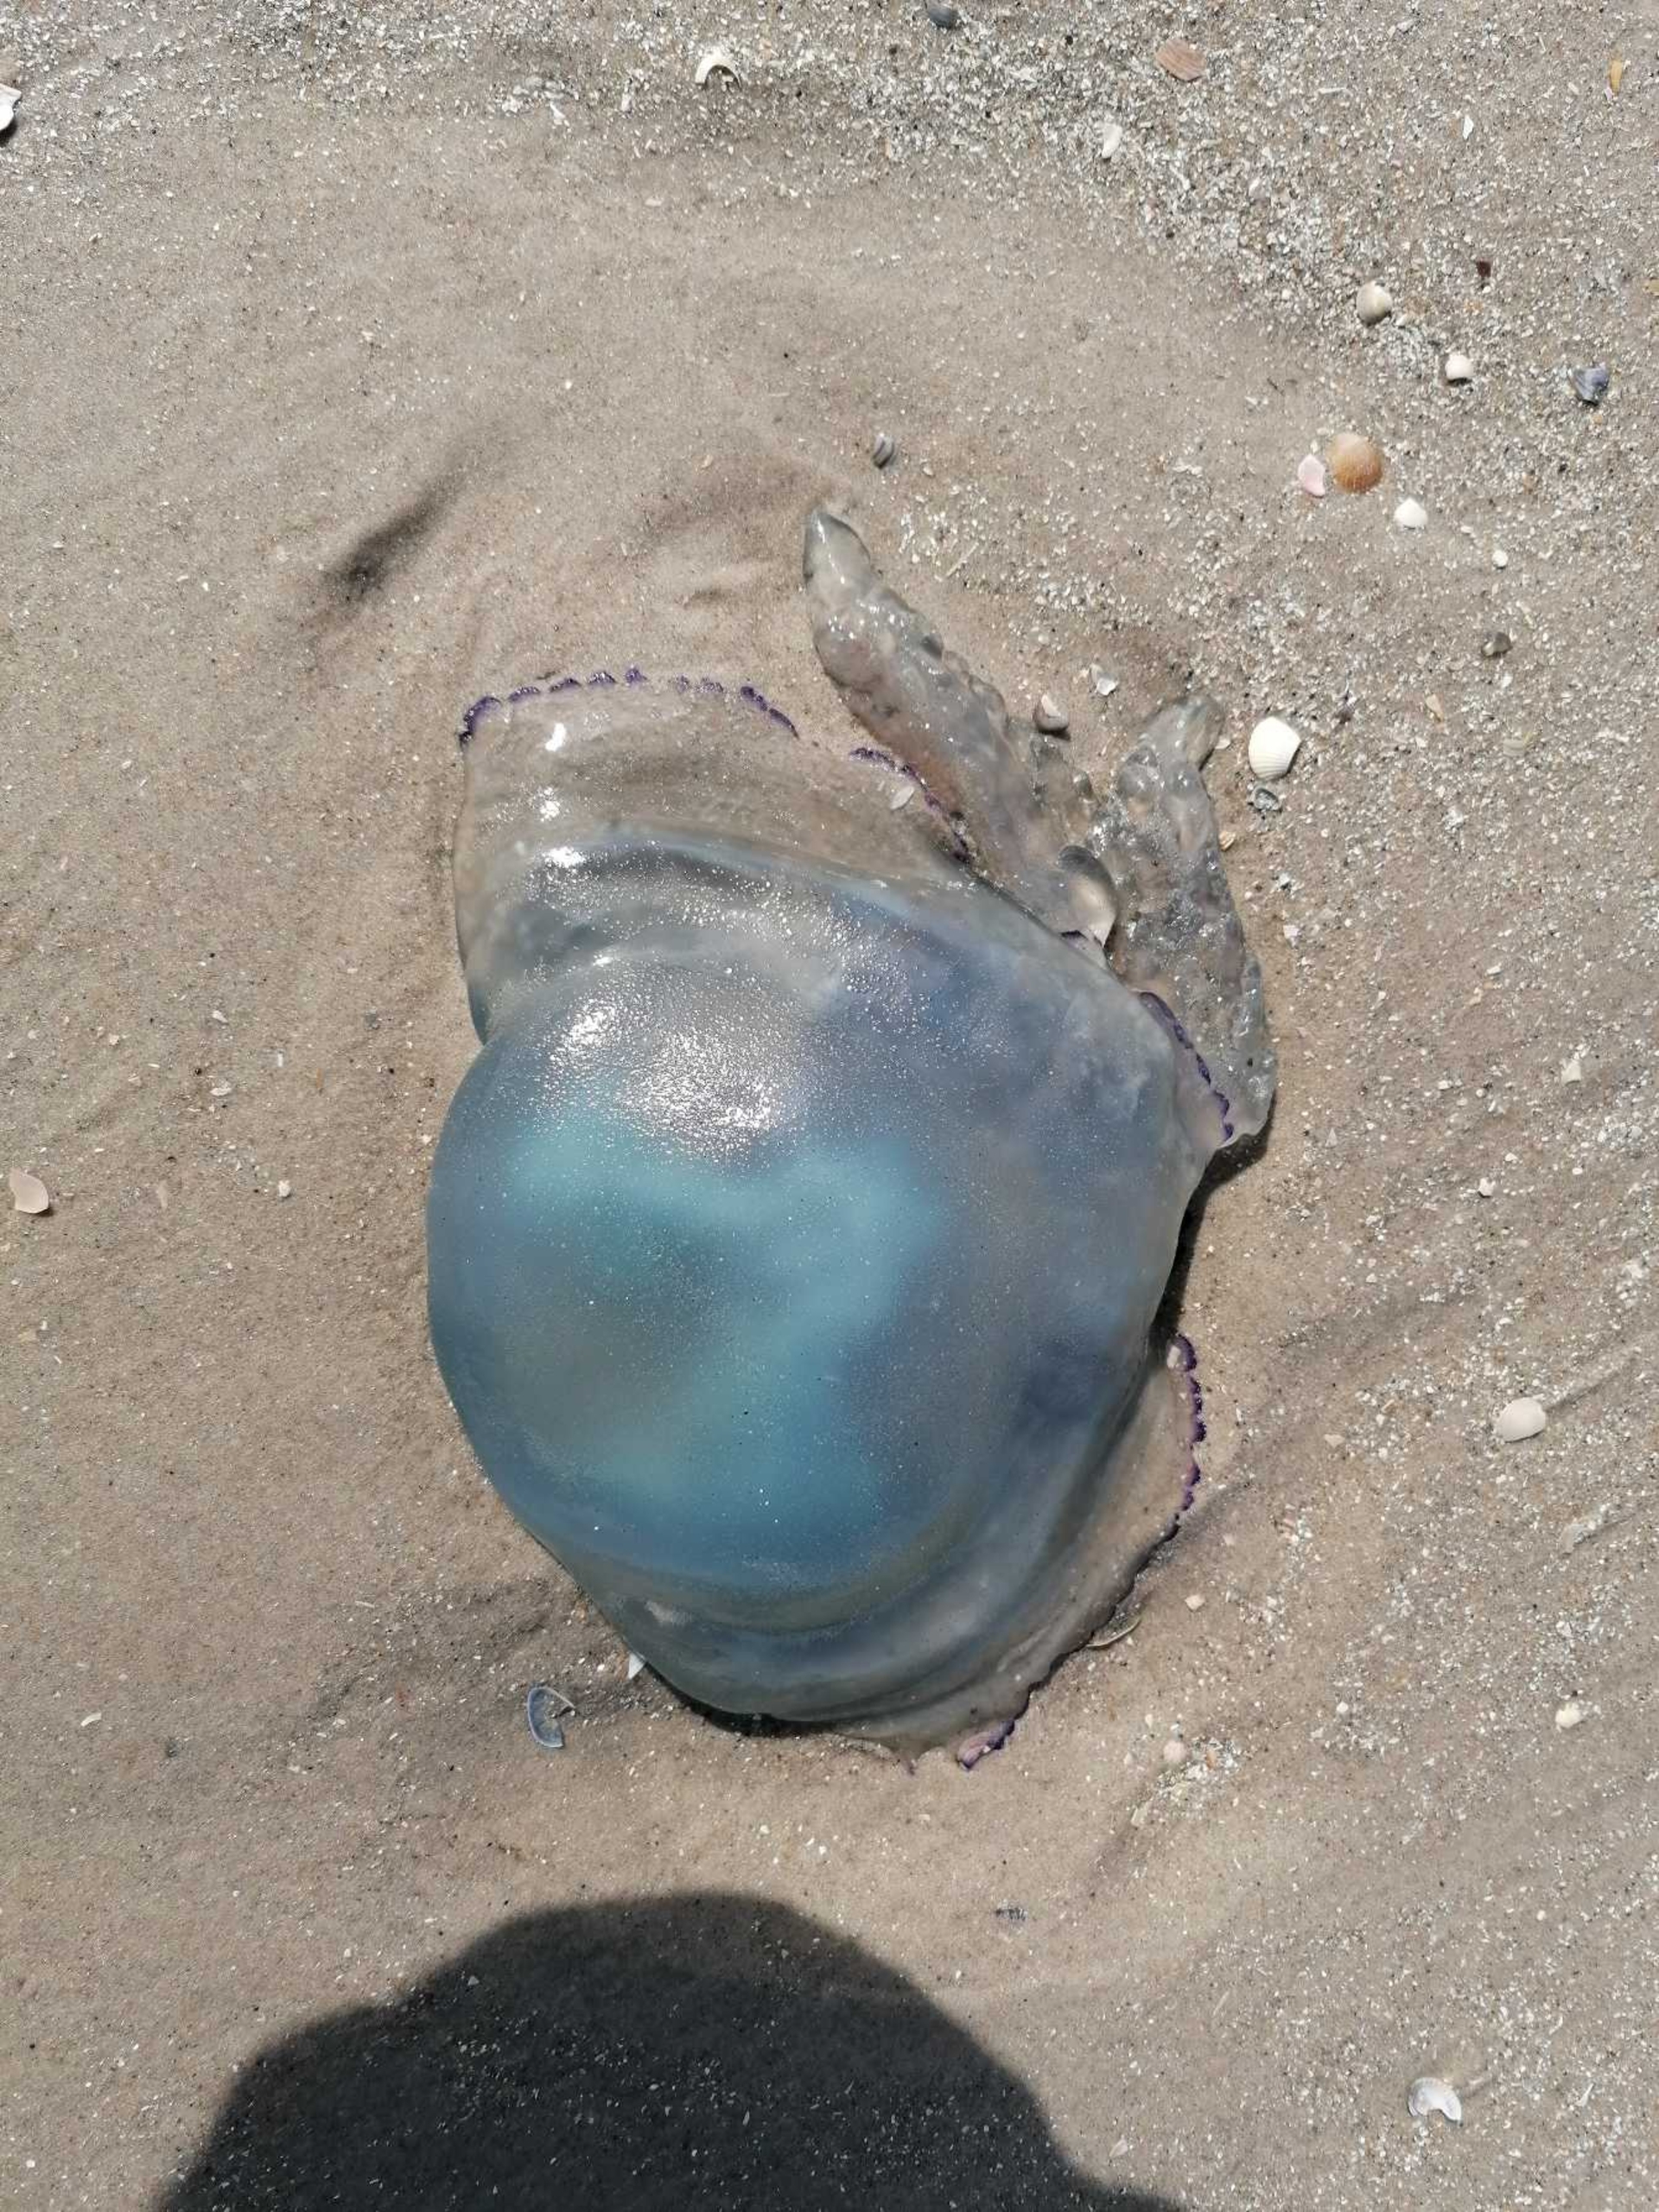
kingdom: Animalia
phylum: Cnidaria
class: Scyphozoa
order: Rhizostomeae
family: Rhizostomatidae
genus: Rhizostoma
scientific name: Rhizostoma pulmo
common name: Lungegople
